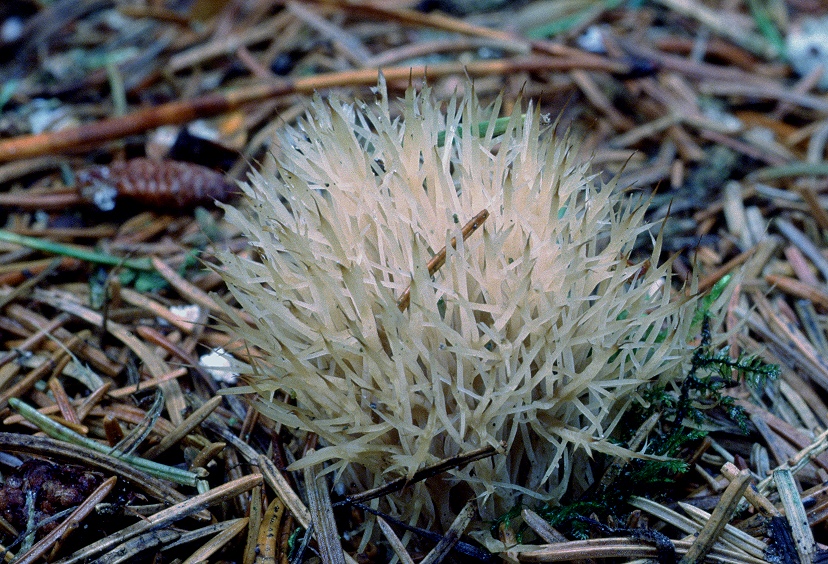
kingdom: Fungi
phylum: Basidiomycota
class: Agaricomycetes
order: Agaricales
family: Pterulaceae
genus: Pterula
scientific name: Pterula multifida
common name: busket fjerkølle
